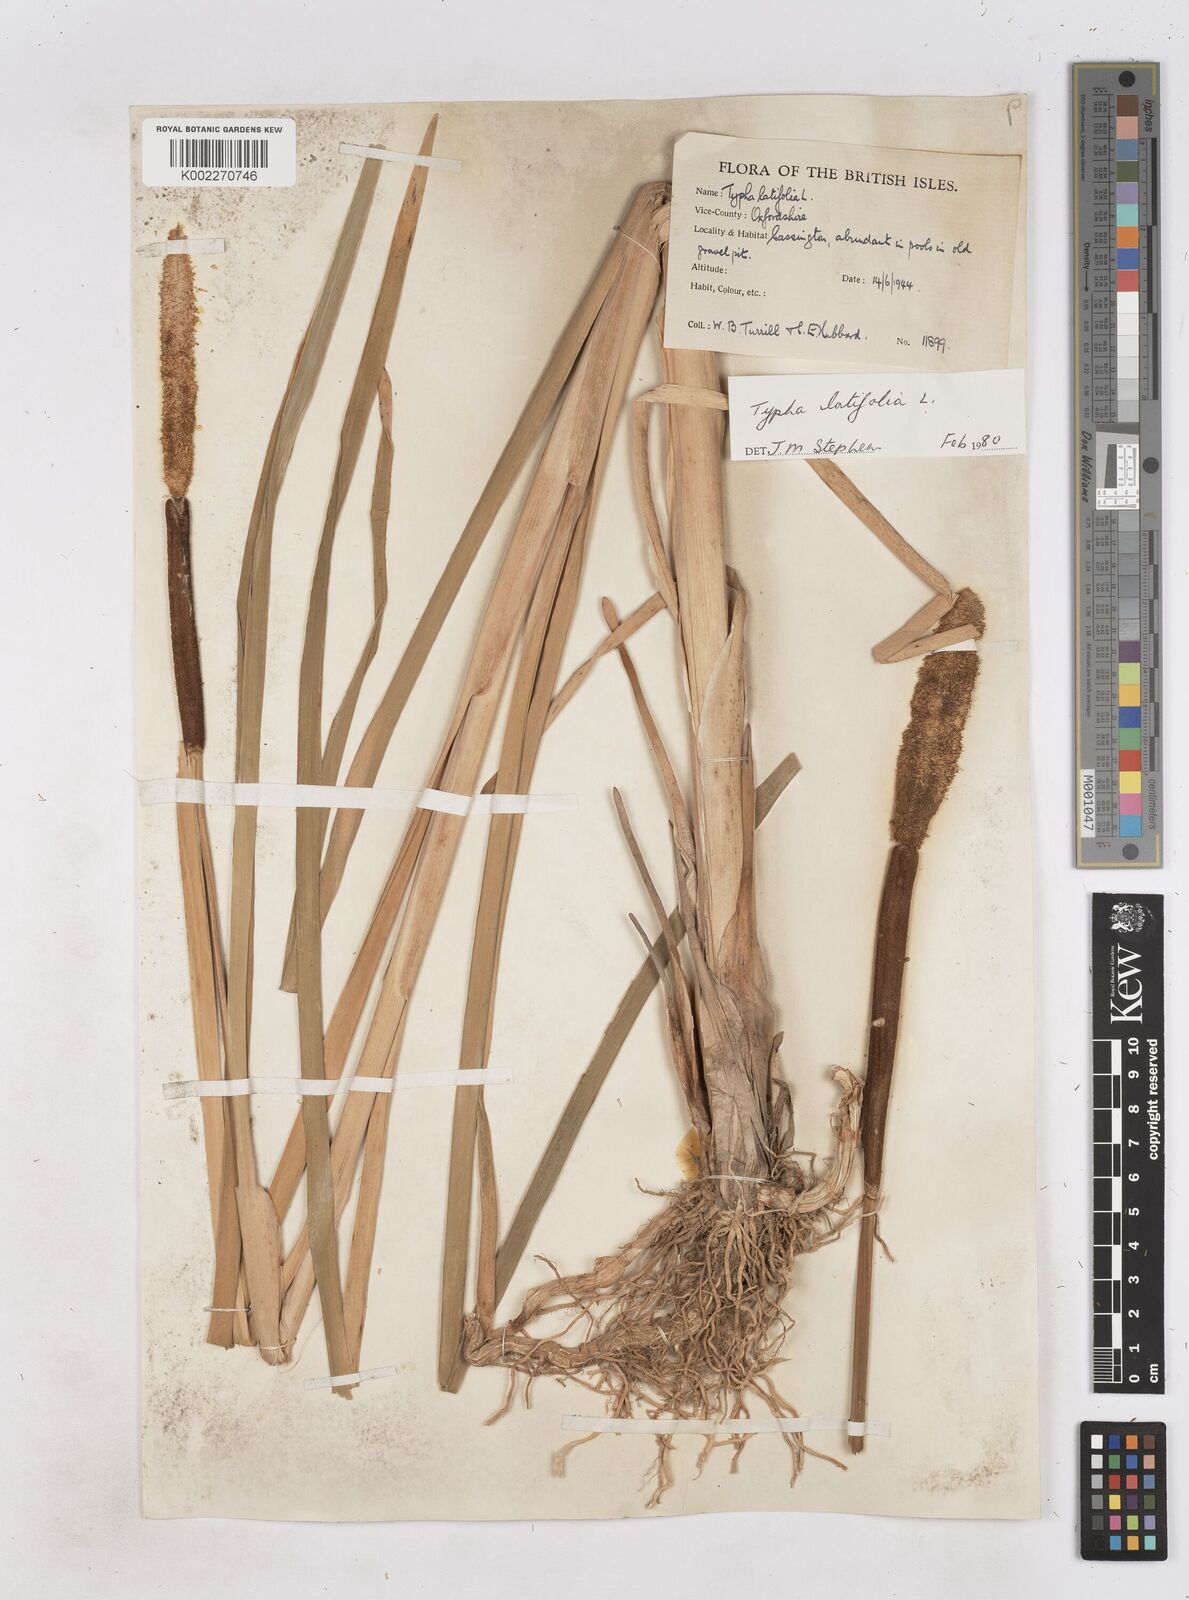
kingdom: Plantae
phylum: Tracheophyta
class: Liliopsida
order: Poales
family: Typhaceae
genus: Typha
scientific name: Typha latifolia
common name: Broadleaf cattail
